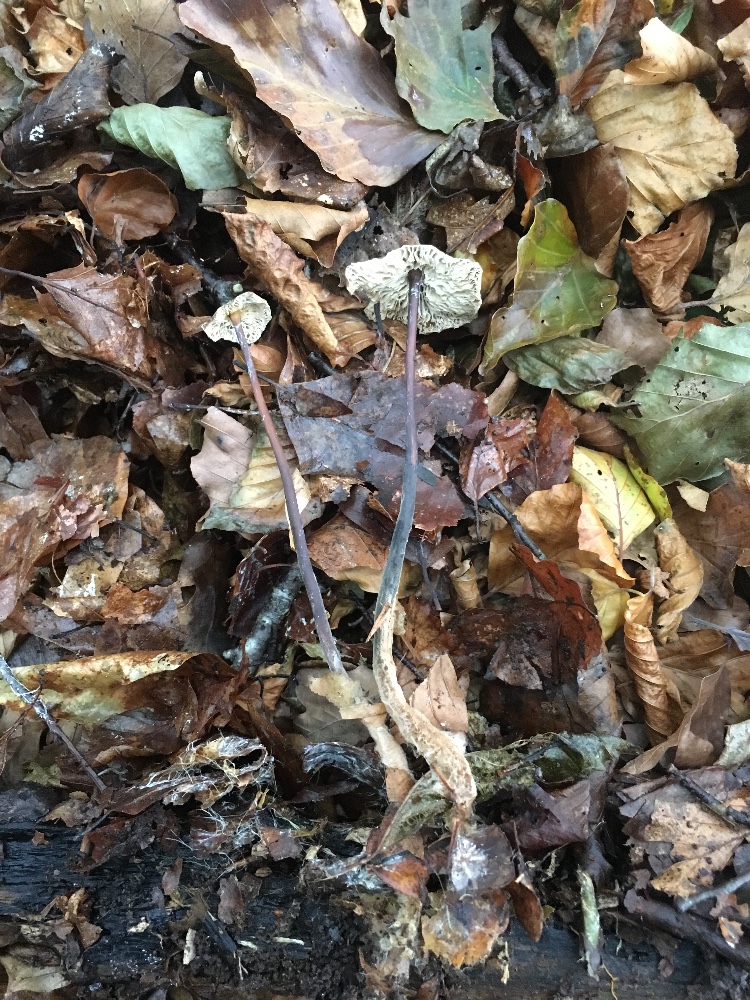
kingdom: Fungi
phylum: Basidiomycota
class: Agaricomycetes
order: Agaricales
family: Omphalotaceae
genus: Mycetinis
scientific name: Mycetinis alliaceus
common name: stor løghat
